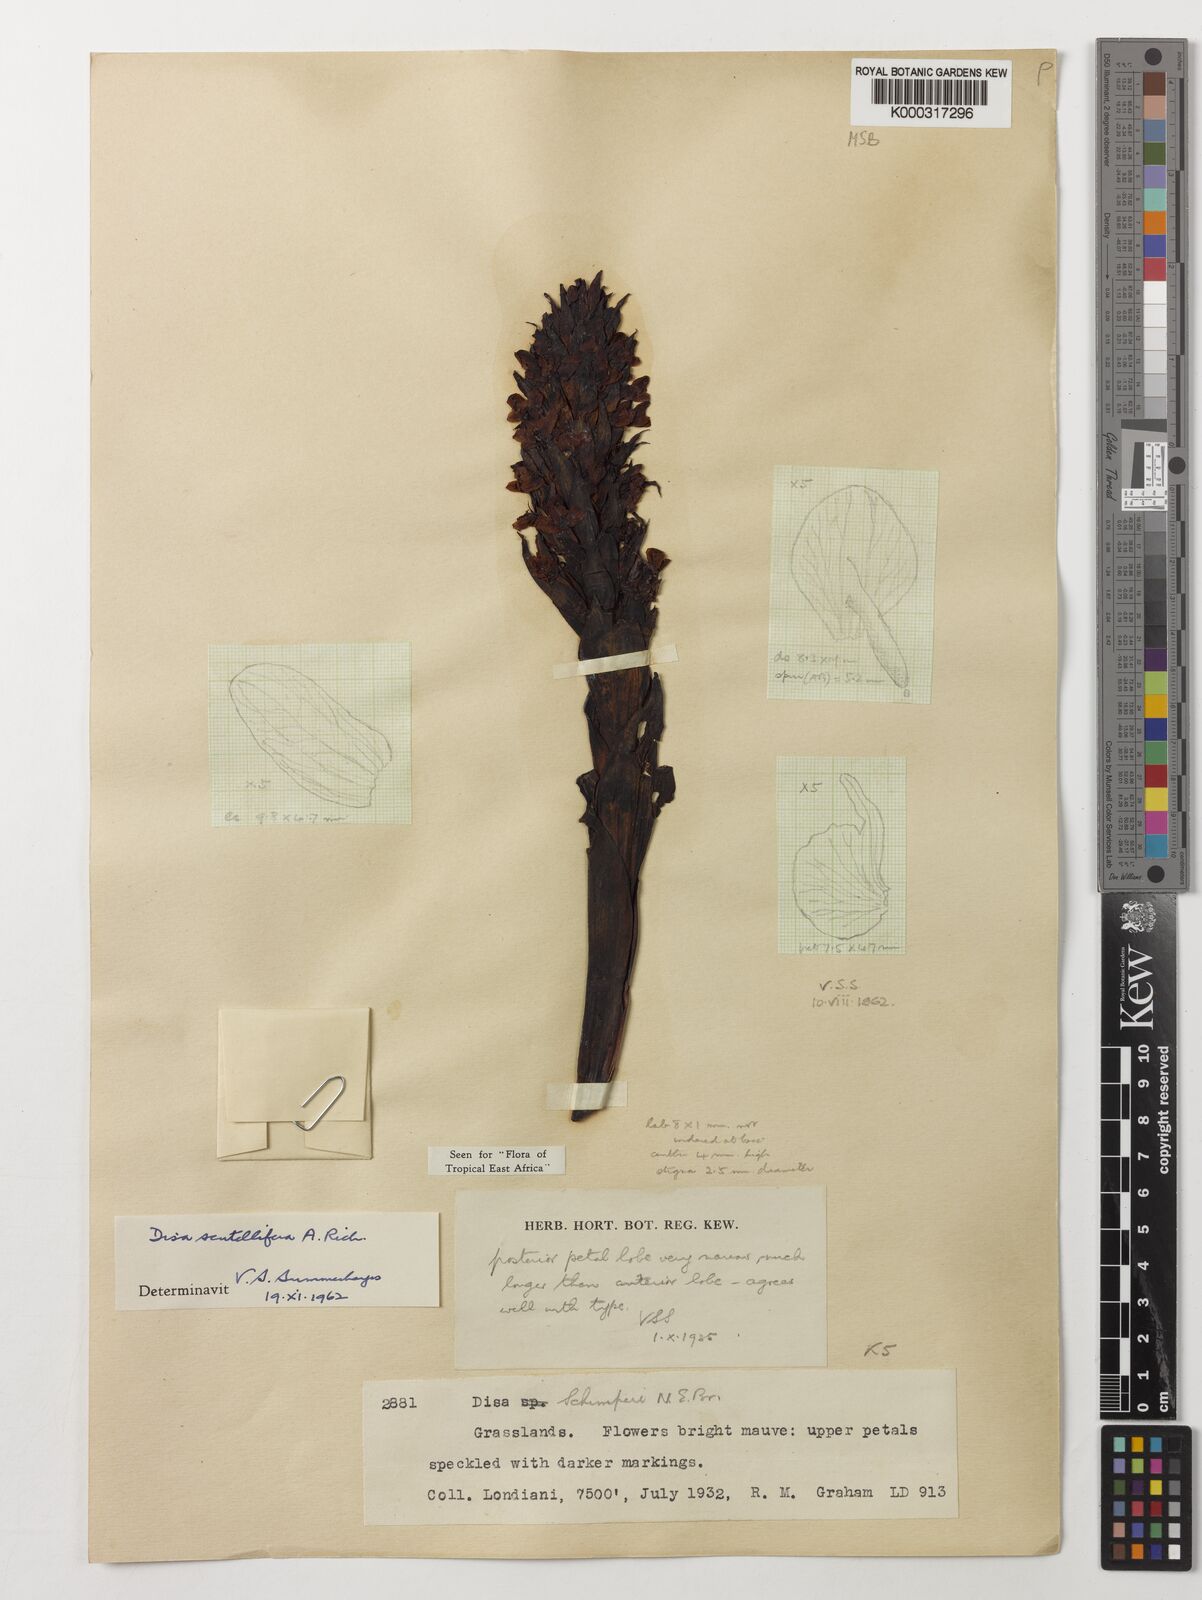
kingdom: Plantae
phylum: Tracheophyta
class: Liliopsida
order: Asparagales
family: Orchidaceae
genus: Disa
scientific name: Disa scutellifera
